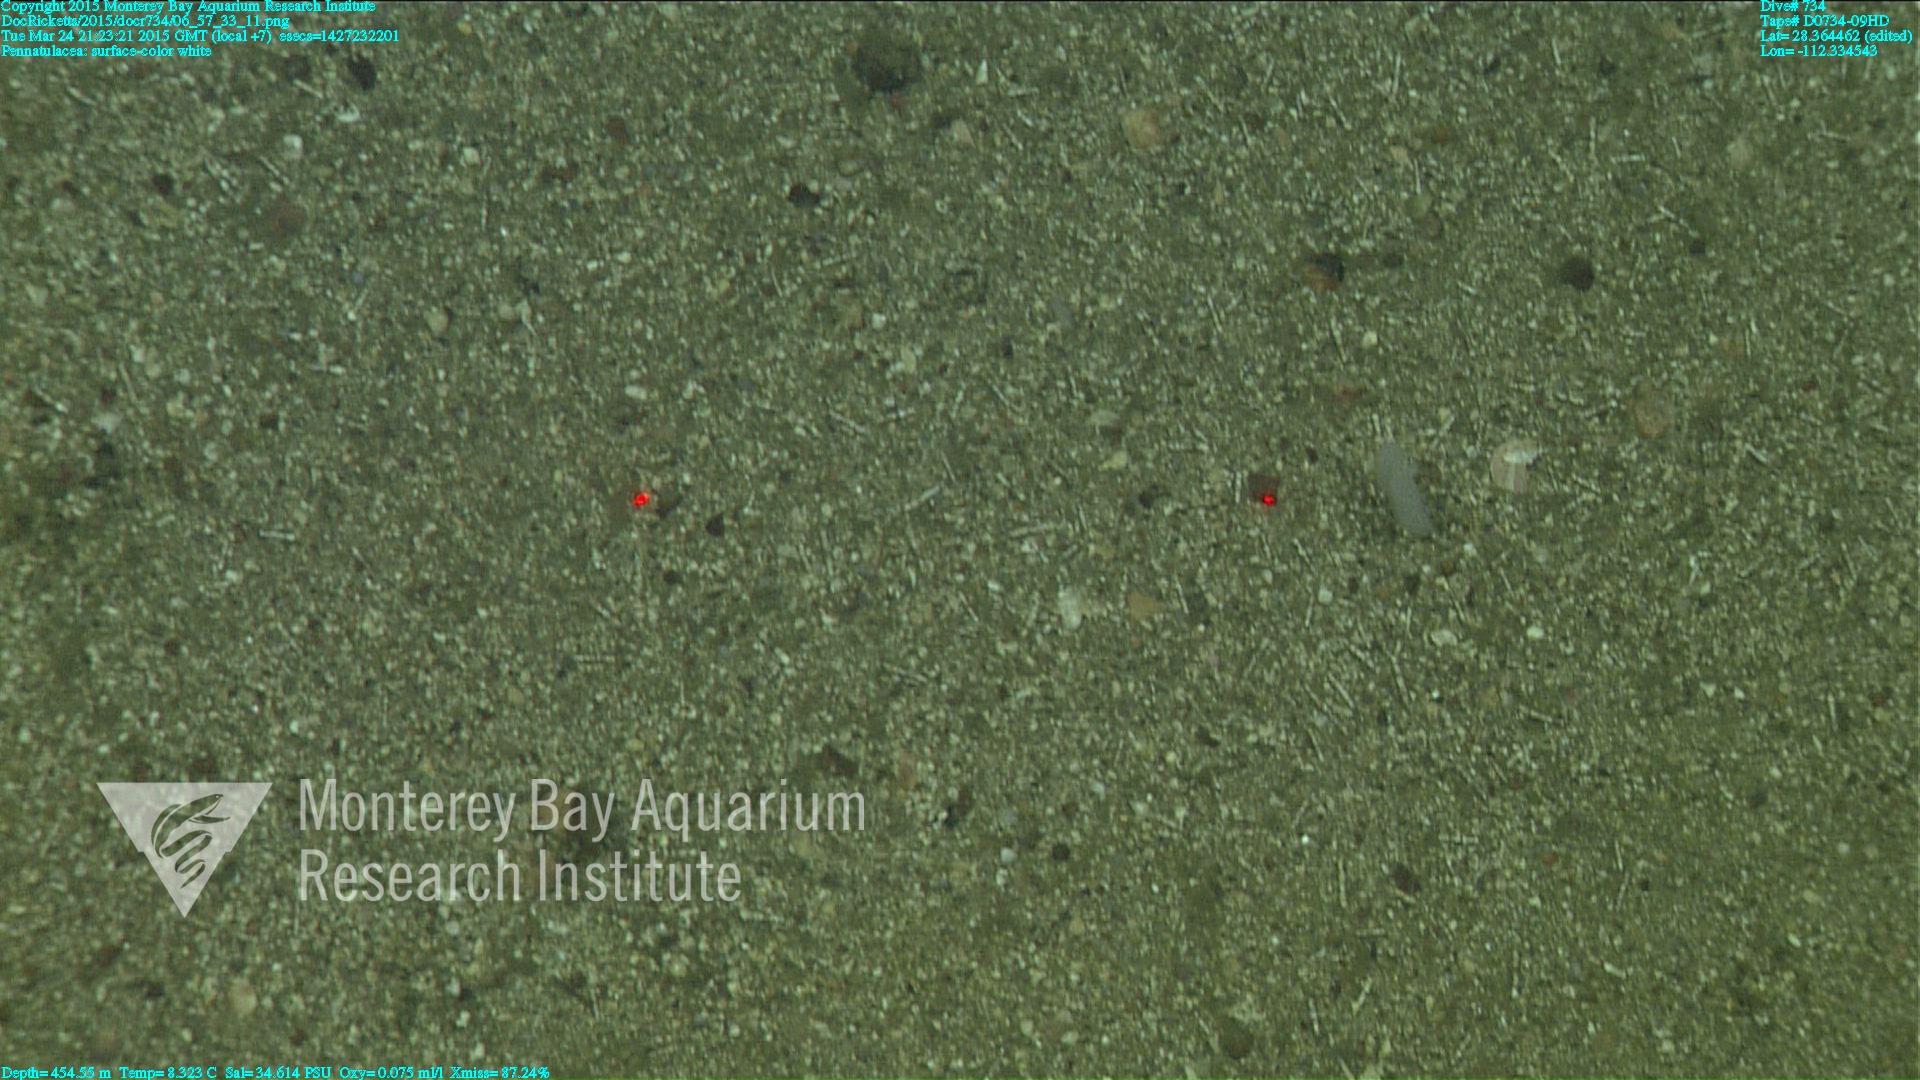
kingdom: Animalia
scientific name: Animalia
